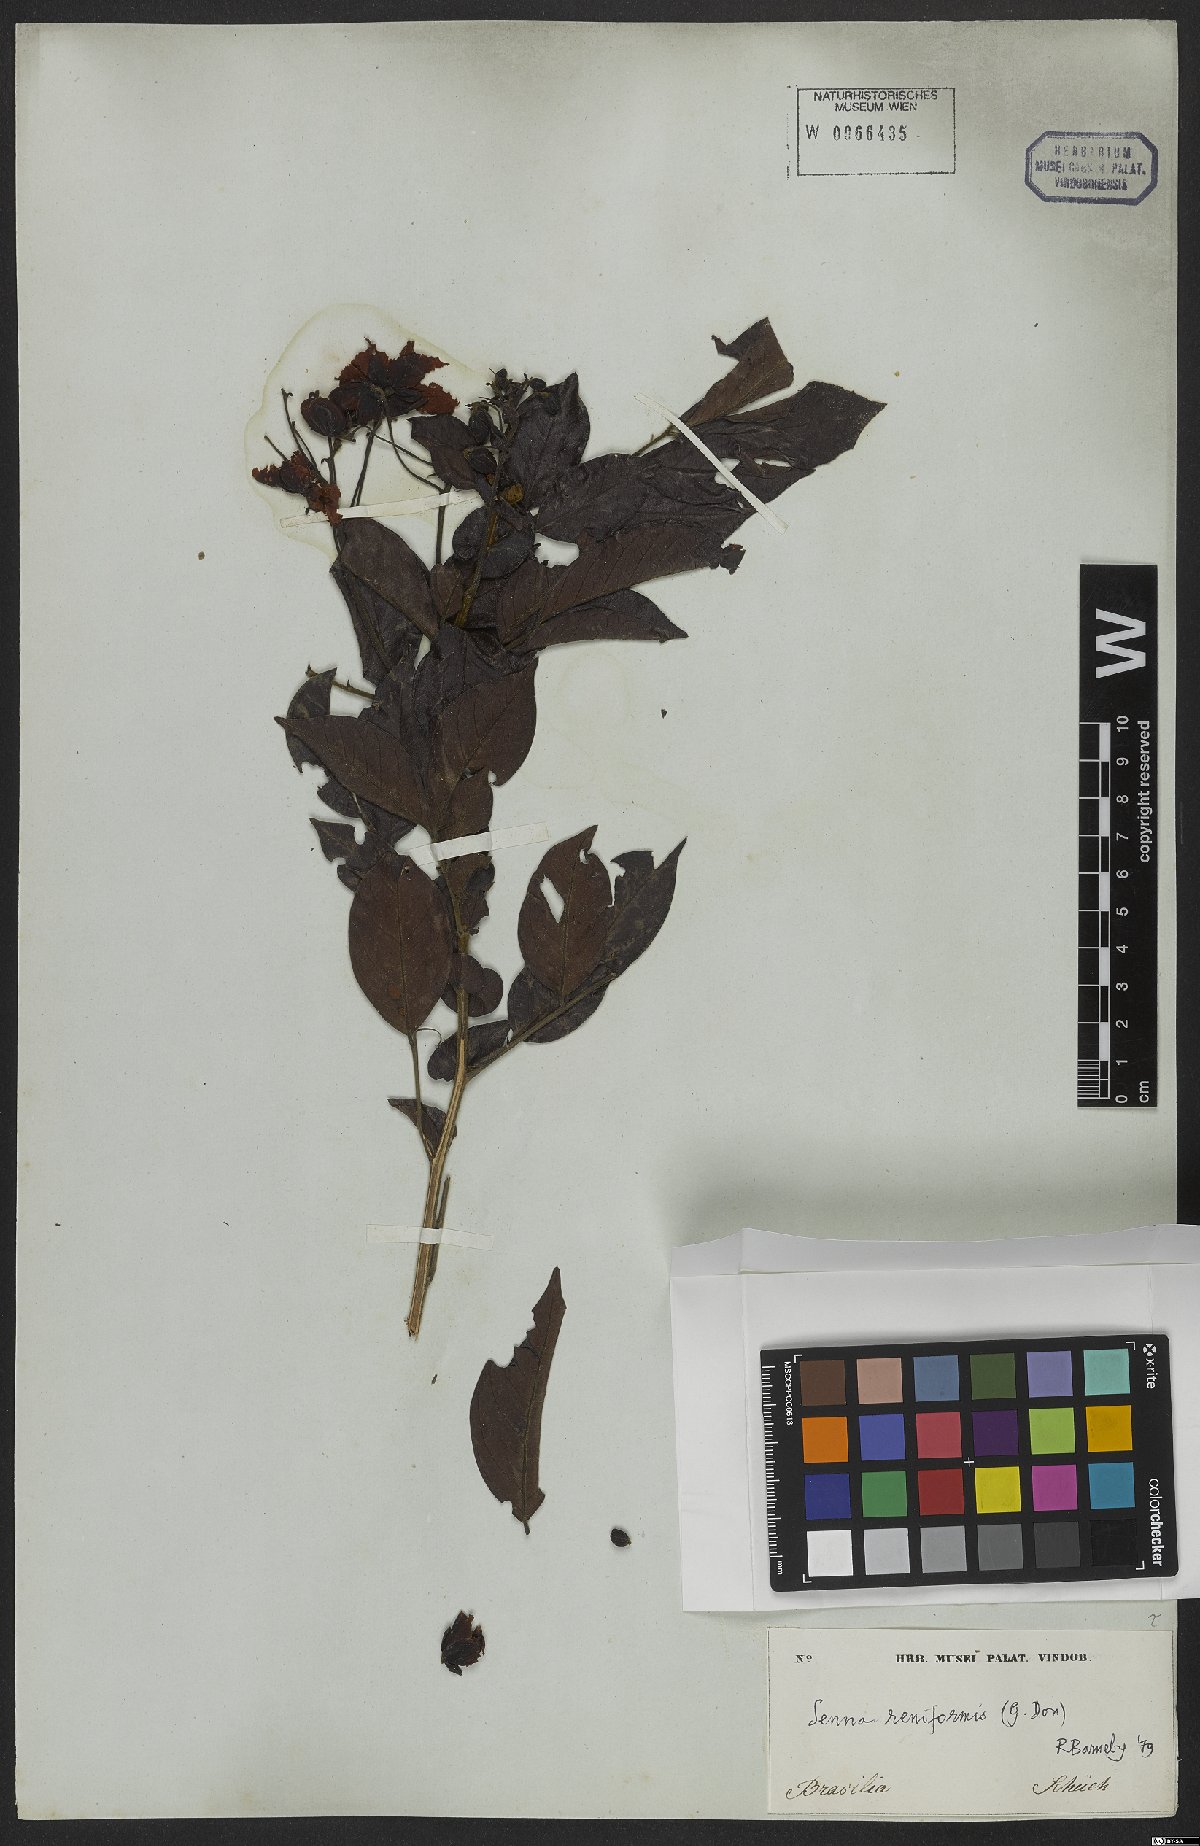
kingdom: Plantae
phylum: Tracheophyta
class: Magnoliopsida
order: Fabales
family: Fabaceae
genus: Senna
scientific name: Senna reniformis
